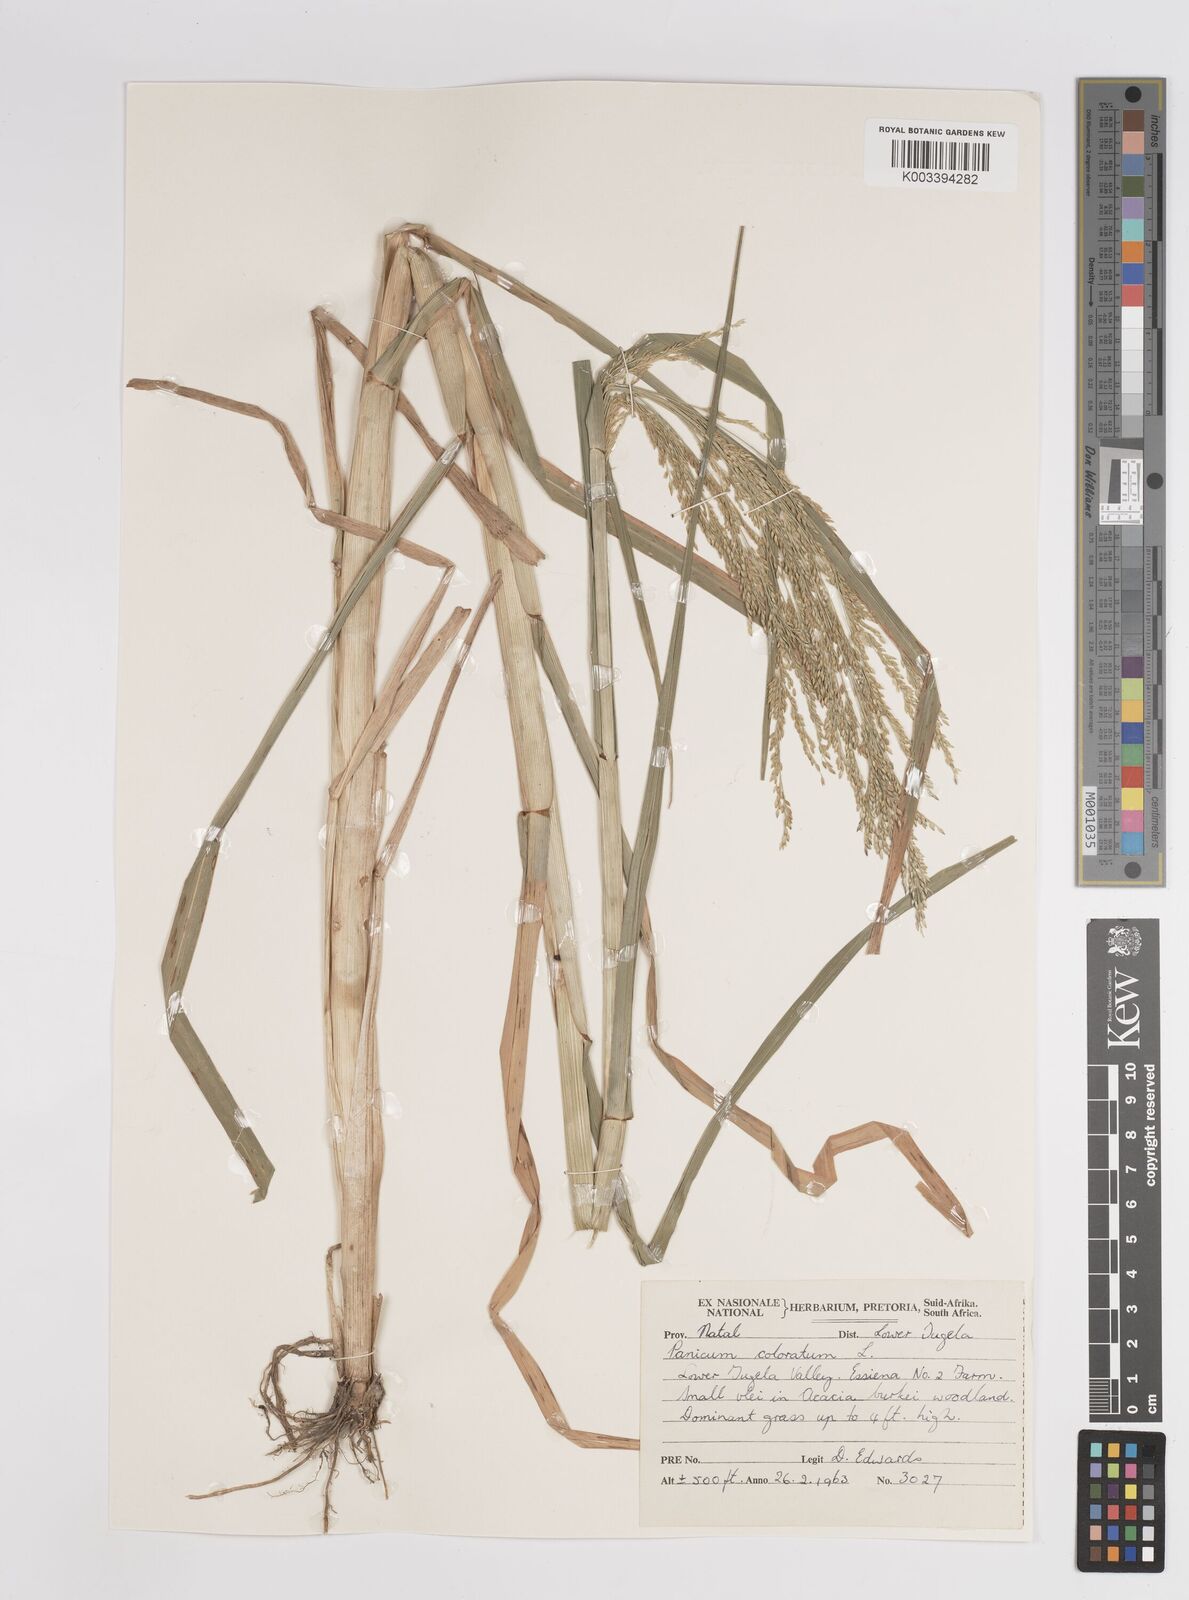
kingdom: Plantae
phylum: Tracheophyta
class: Liliopsida
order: Poales
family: Poaceae
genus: Panicum
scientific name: Panicum subalbidum
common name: Elbow buffalo grass
